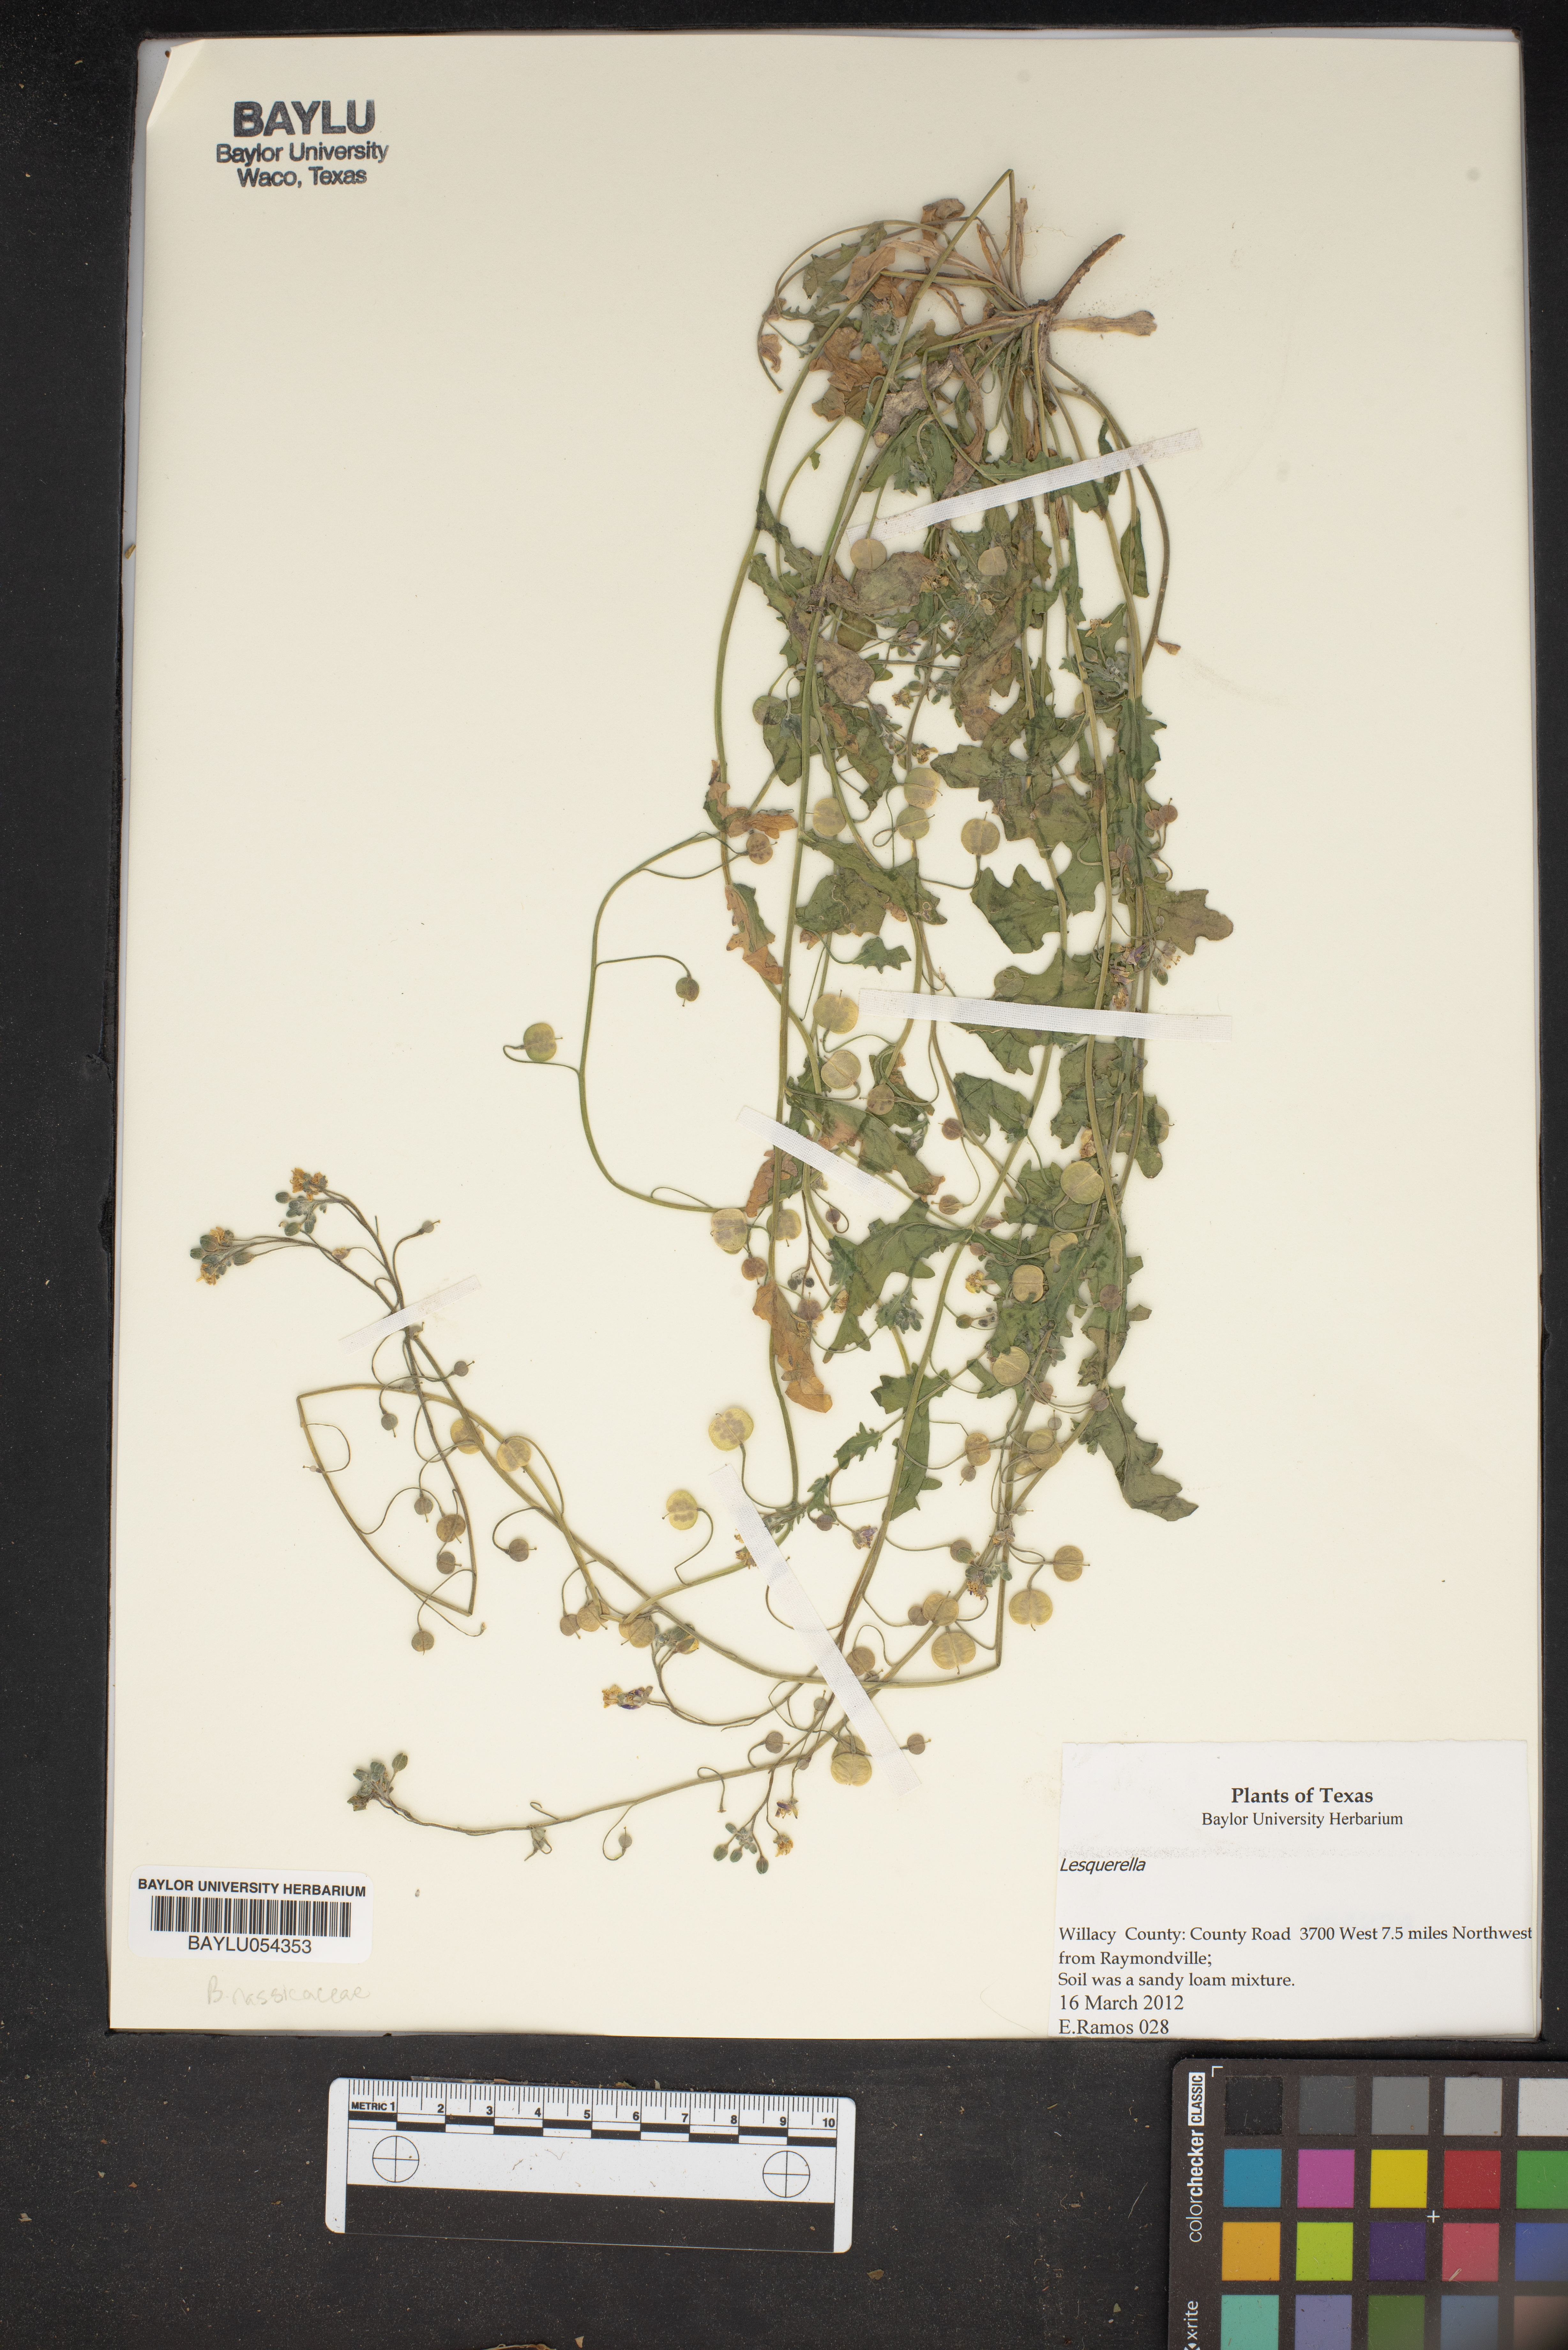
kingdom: Chromista
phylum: Cercozoa
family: Psammonobiotidae
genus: Lesquerella
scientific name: Lesquerella
